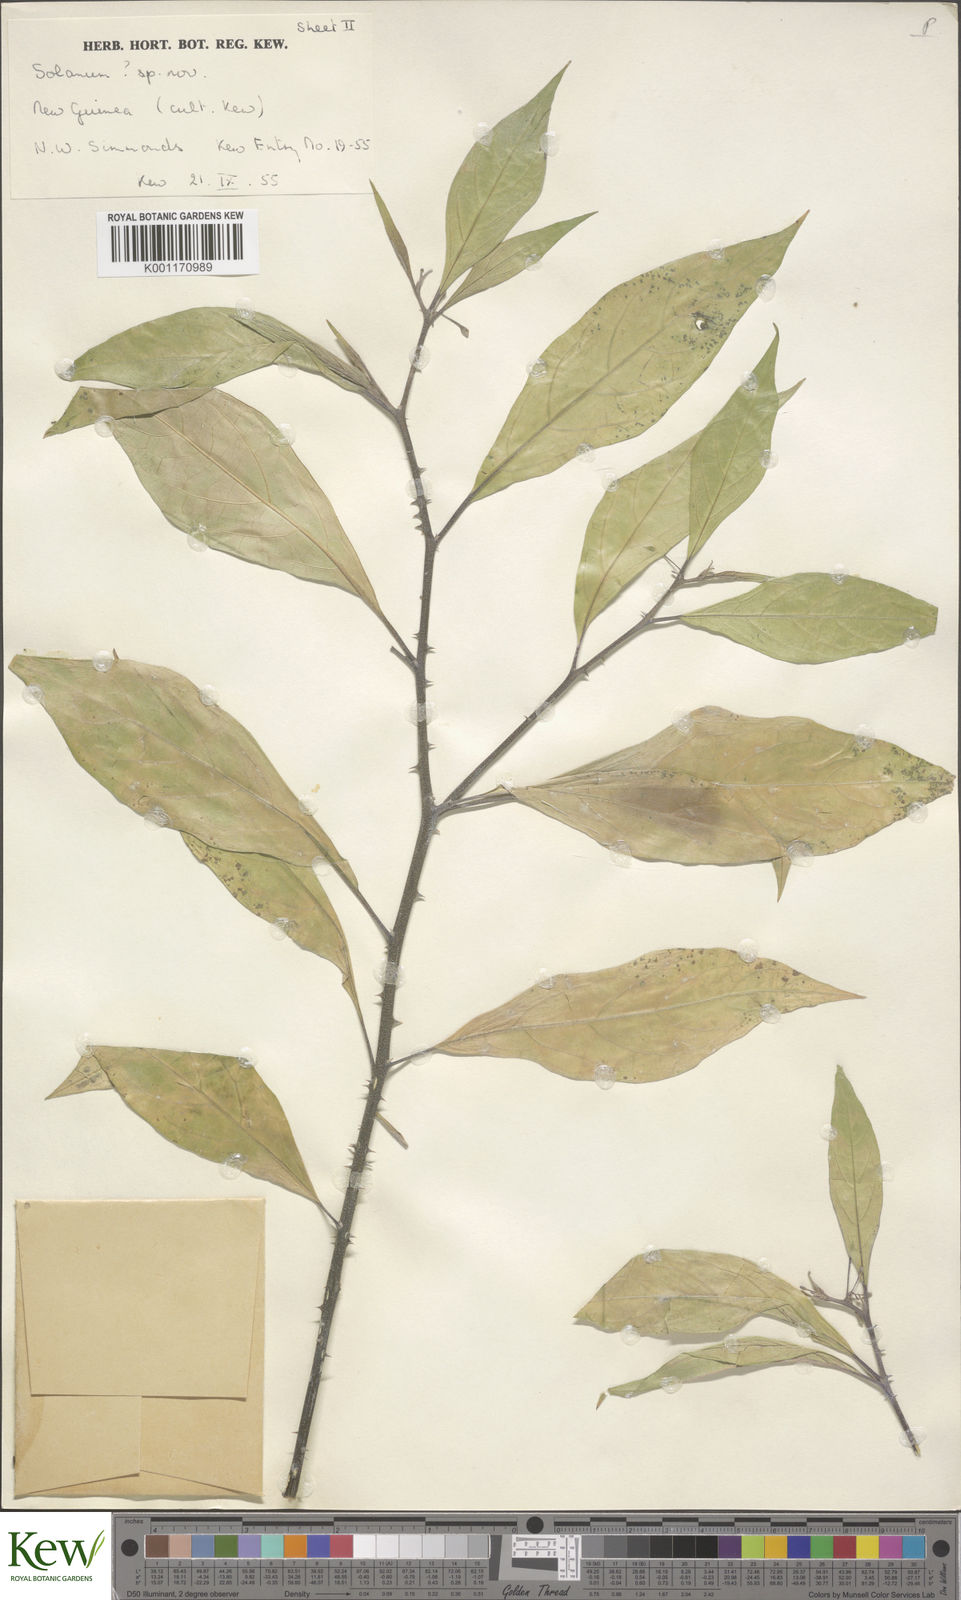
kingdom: Plantae
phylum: Tracheophyta
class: Magnoliopsida
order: Solanales
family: Solanaceae
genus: Solanum
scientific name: Solanum
